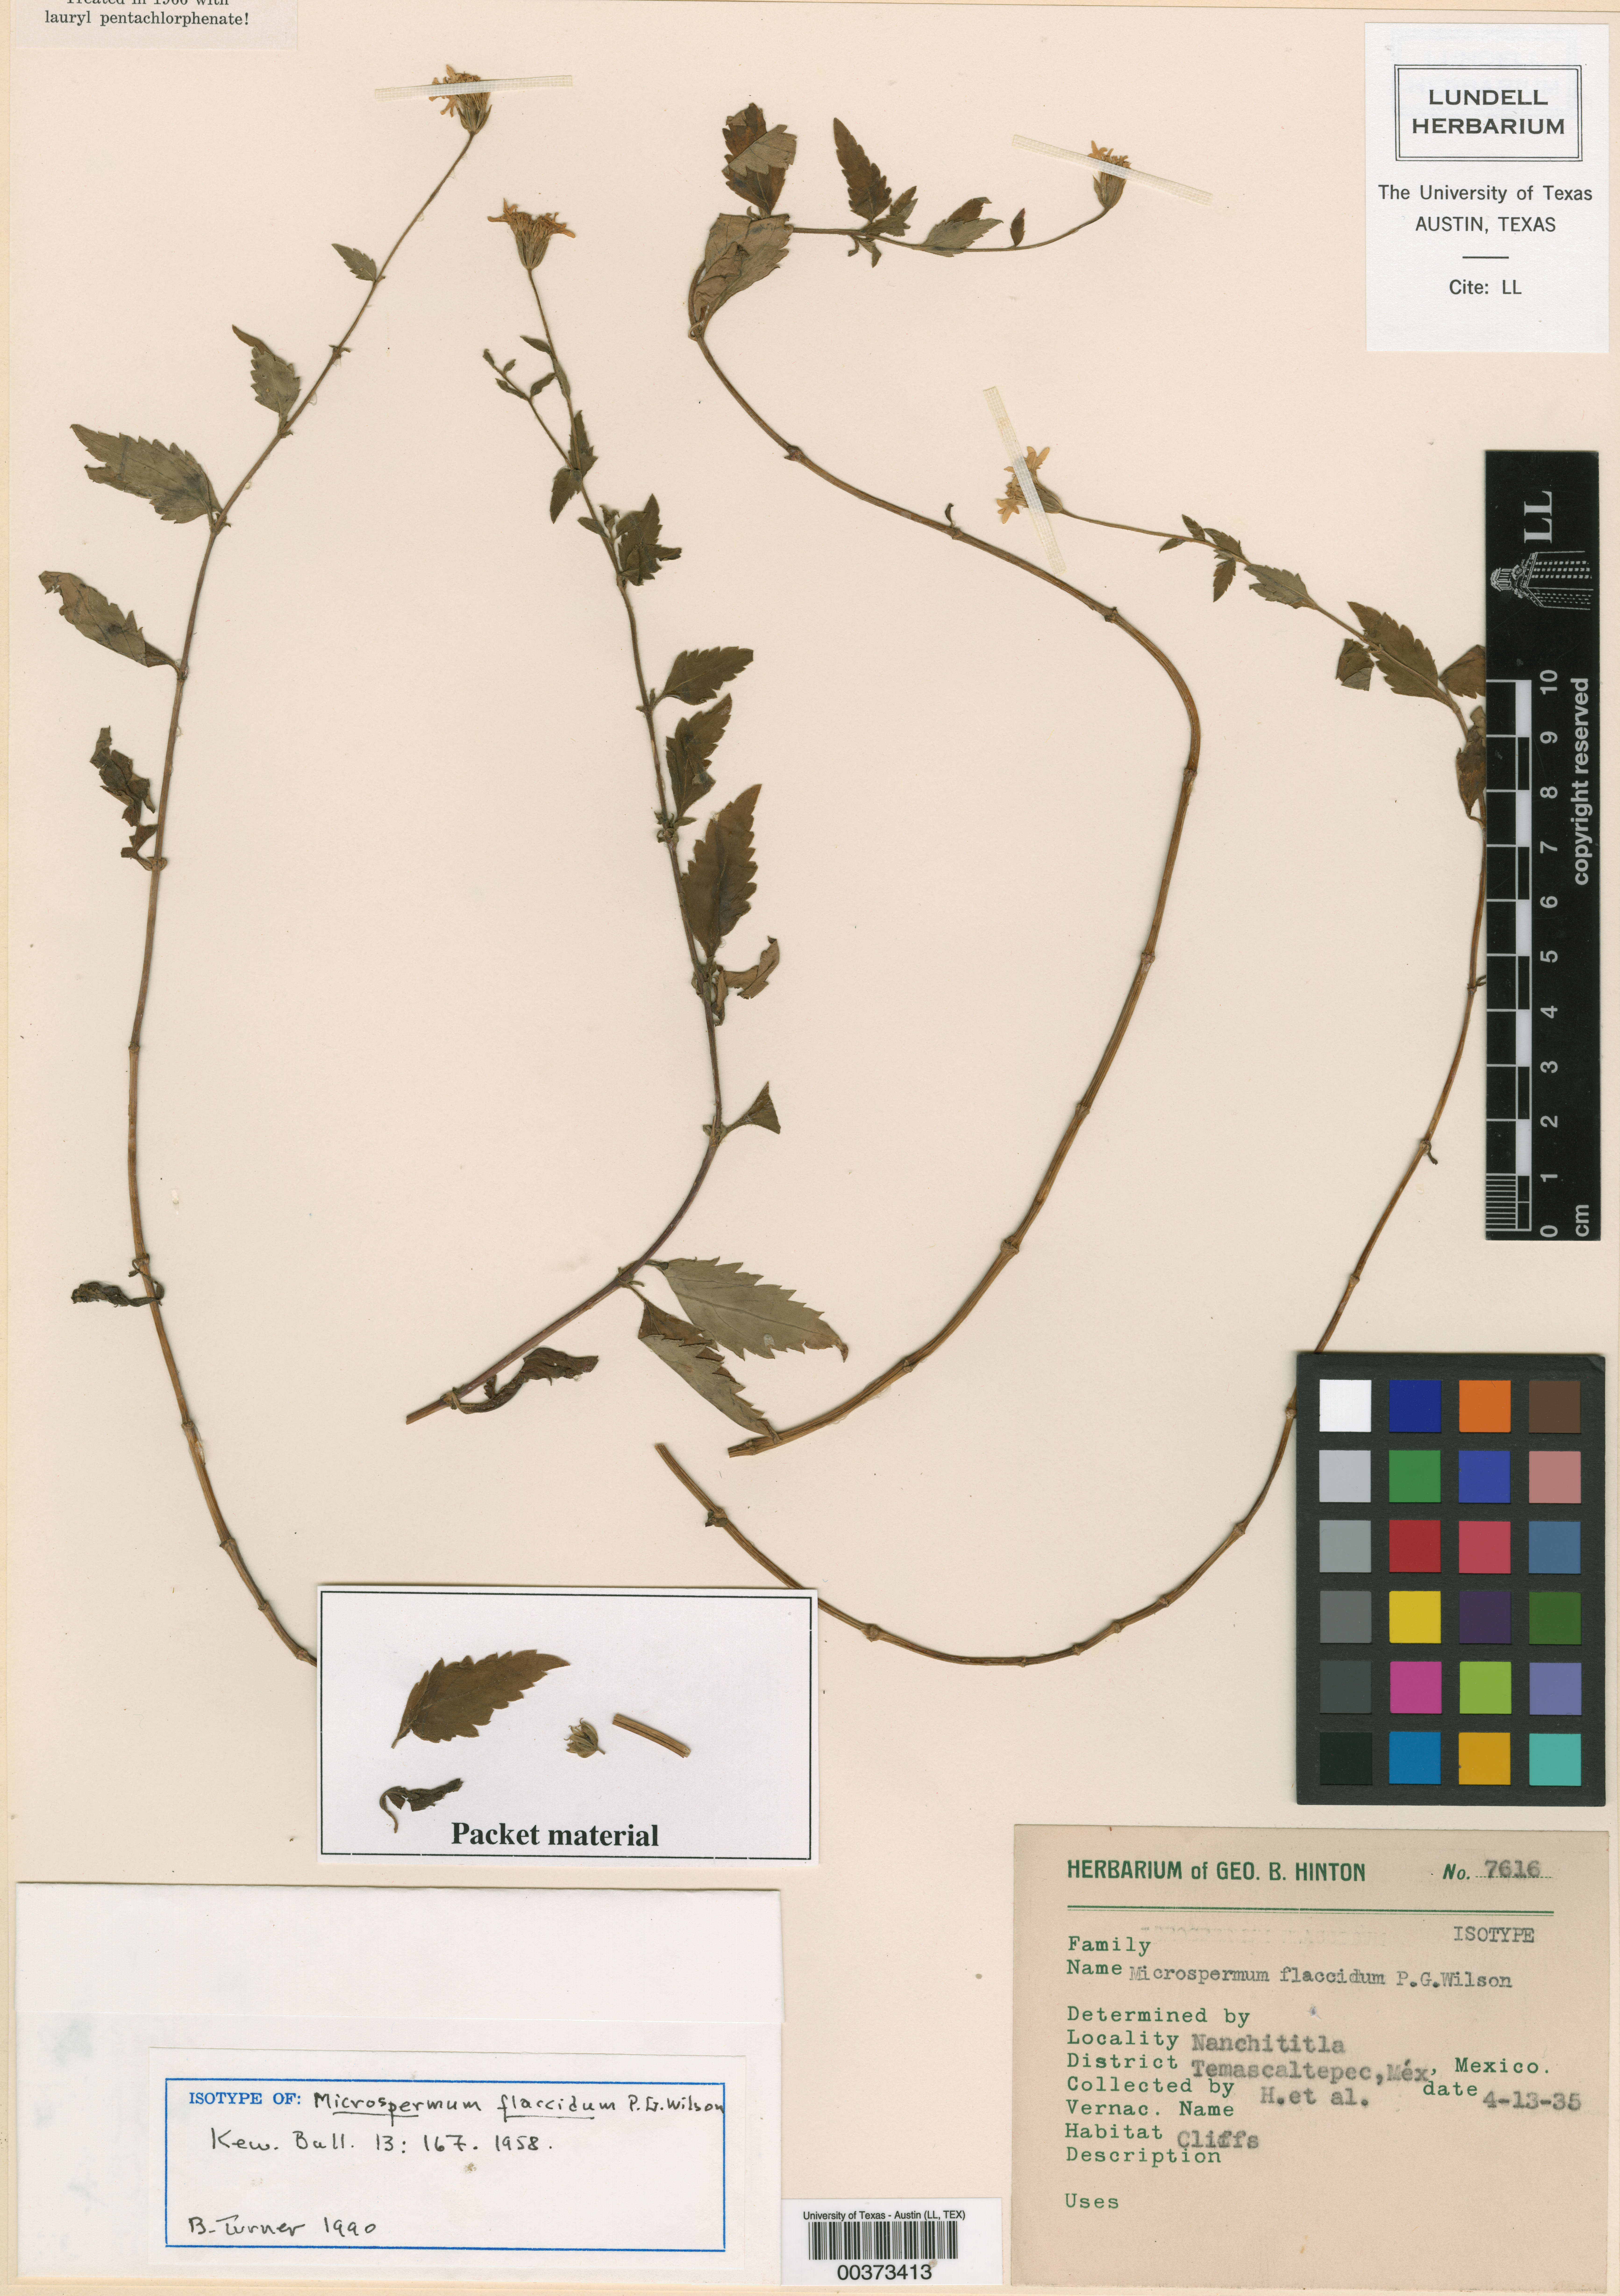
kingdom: Plantae
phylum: Tracheophyta
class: Magnoliopsida
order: Asterales
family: Asteraceae
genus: Microspermum
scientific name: Microspermum flaccidum
